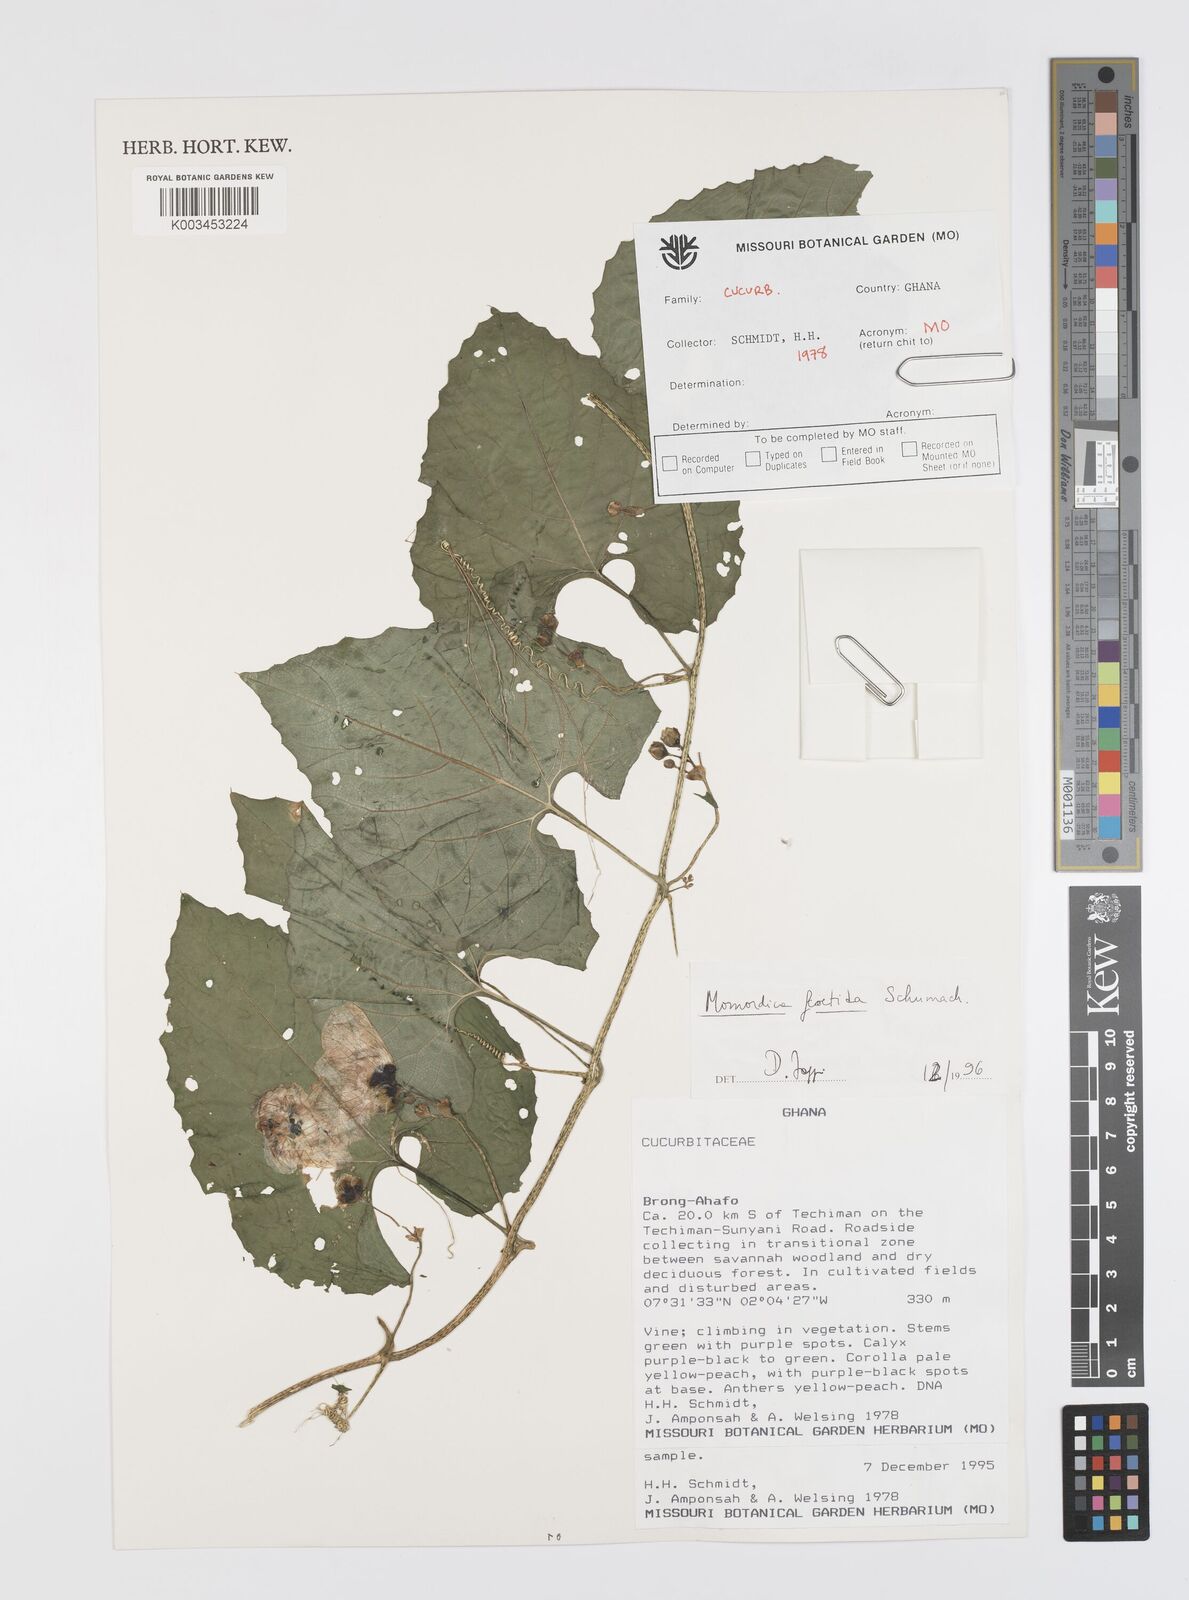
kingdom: Plantae
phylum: Tracheophyta
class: Magnoliopsida
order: Cucurbitales
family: Cucurbitaceae
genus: Momordica
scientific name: Momordica foetida
